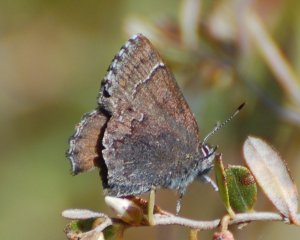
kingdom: Animalia
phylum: Arthropoda
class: Insecta
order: Lepidoptera
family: Lycaenidae
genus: Callophrys
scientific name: Callophrys polios
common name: Hoary Elfin
